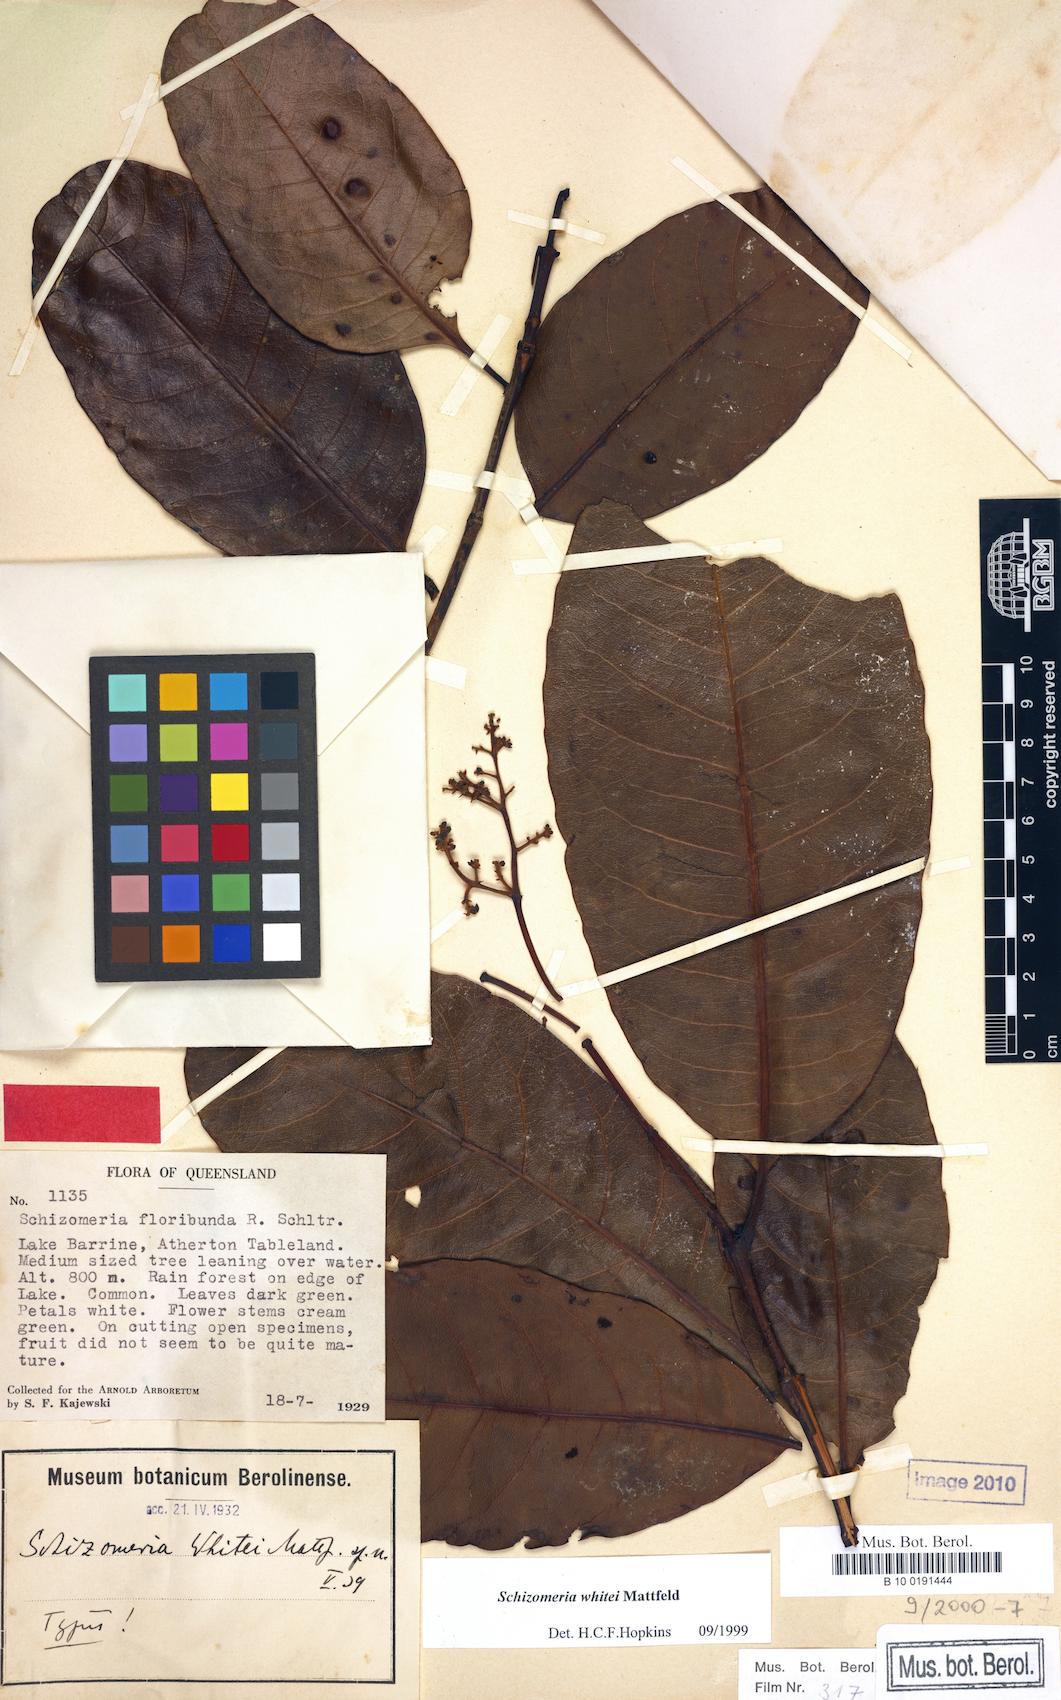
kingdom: Plantae
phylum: Tracheophyta
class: Magnoliopsida
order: Oxalidales
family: Cunoniaceae
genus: Schizomeria
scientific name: Schizomeria whitei
